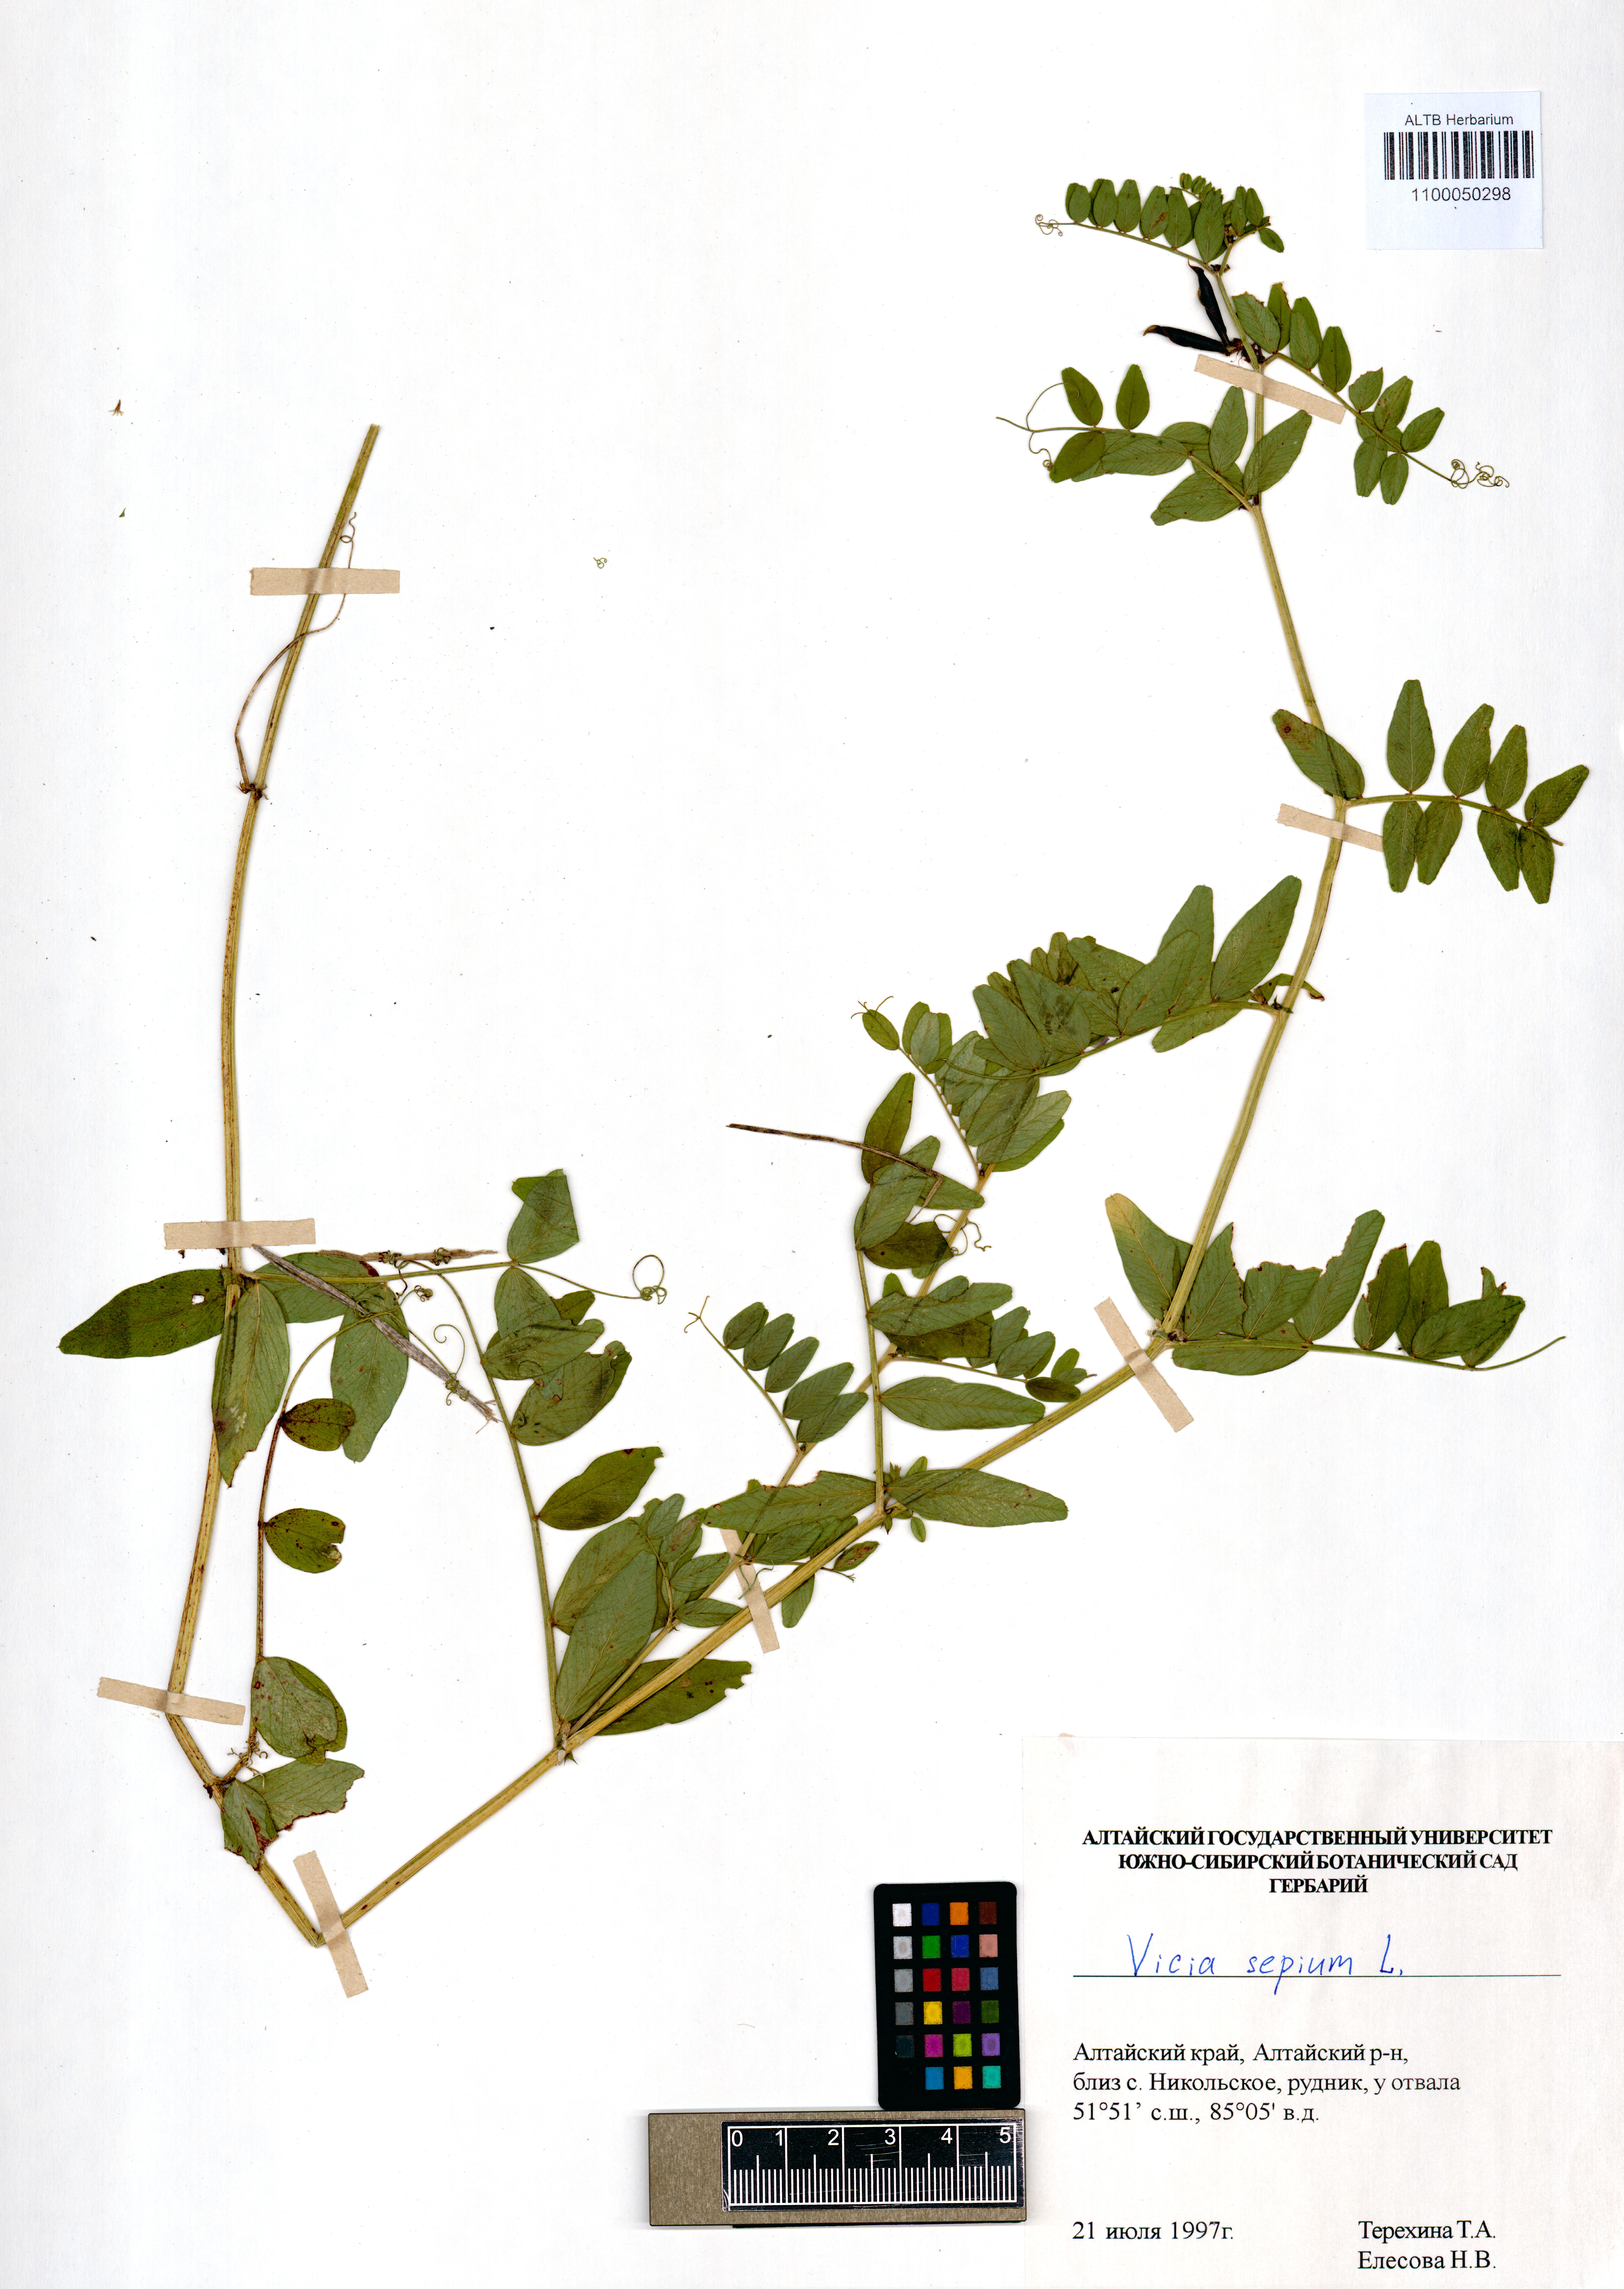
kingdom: Plantae
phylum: Tracheophyta
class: Magnoliopsida
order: Fabales
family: Fabaceae
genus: Vicia
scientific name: Vicia sepium
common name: Bush vetch
